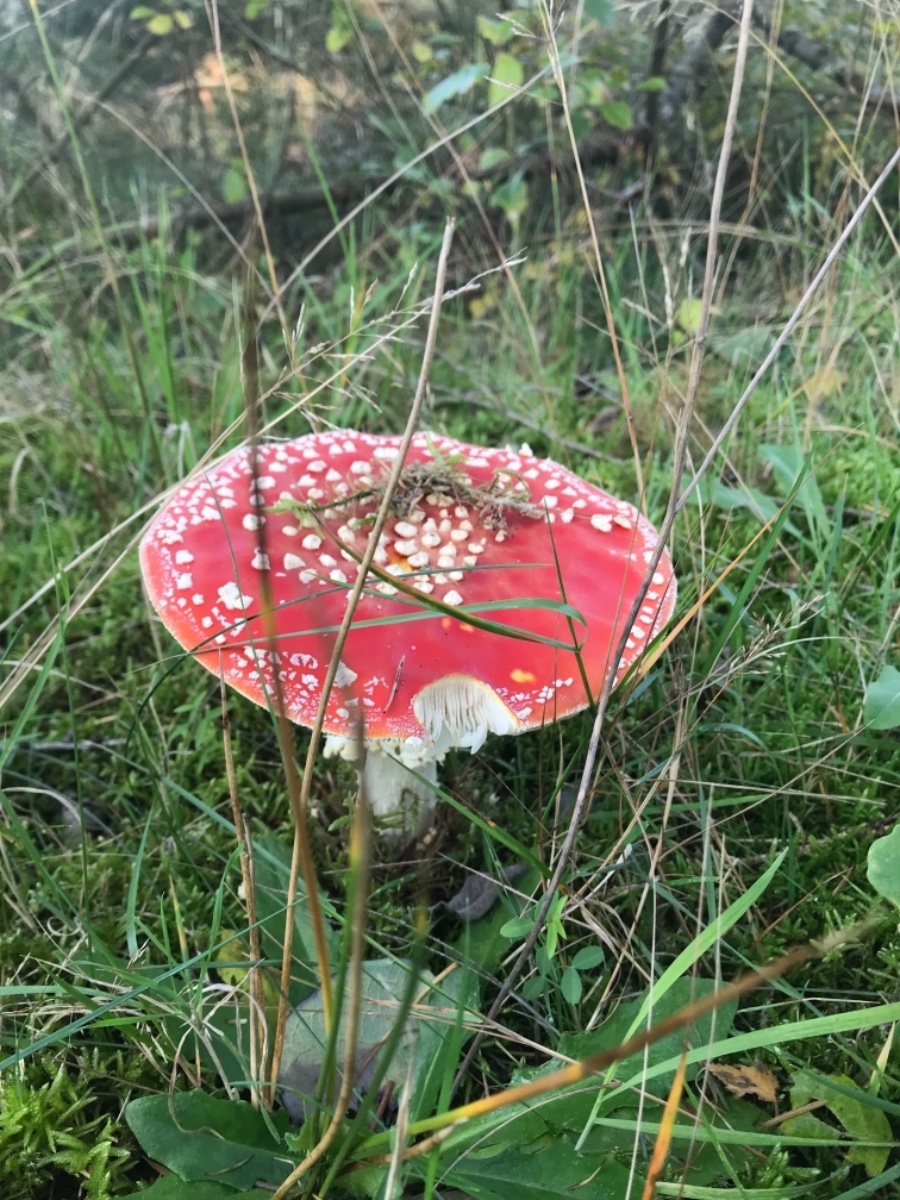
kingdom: Fungi
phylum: Basidiomycota
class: Agaricomycetes
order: Agaricales
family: Amanitaceae
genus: Amanita
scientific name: Amanita muscaria
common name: rød fluesvamp
